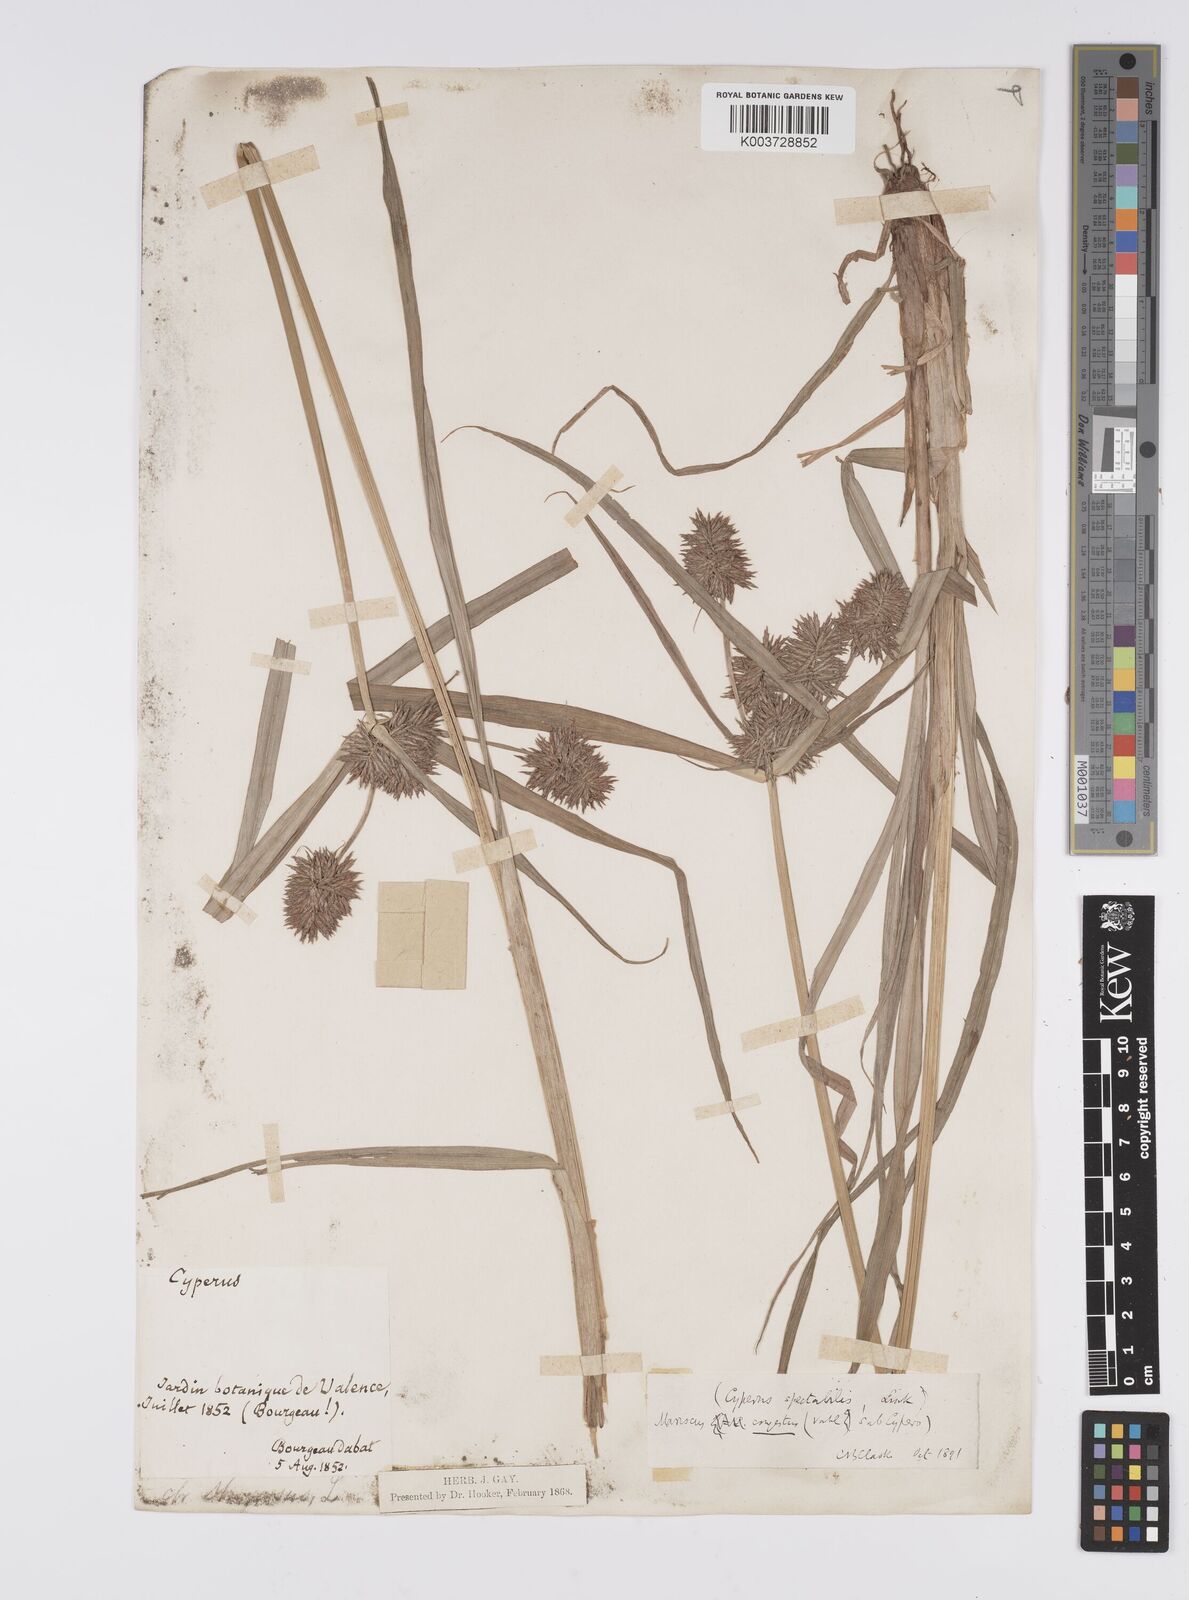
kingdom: Plantae
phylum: Tracheophyta
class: Liliopsida
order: Poales
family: Cyperaceae
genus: Cyperus
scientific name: Cyperus congestus
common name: Dense flat sedge
